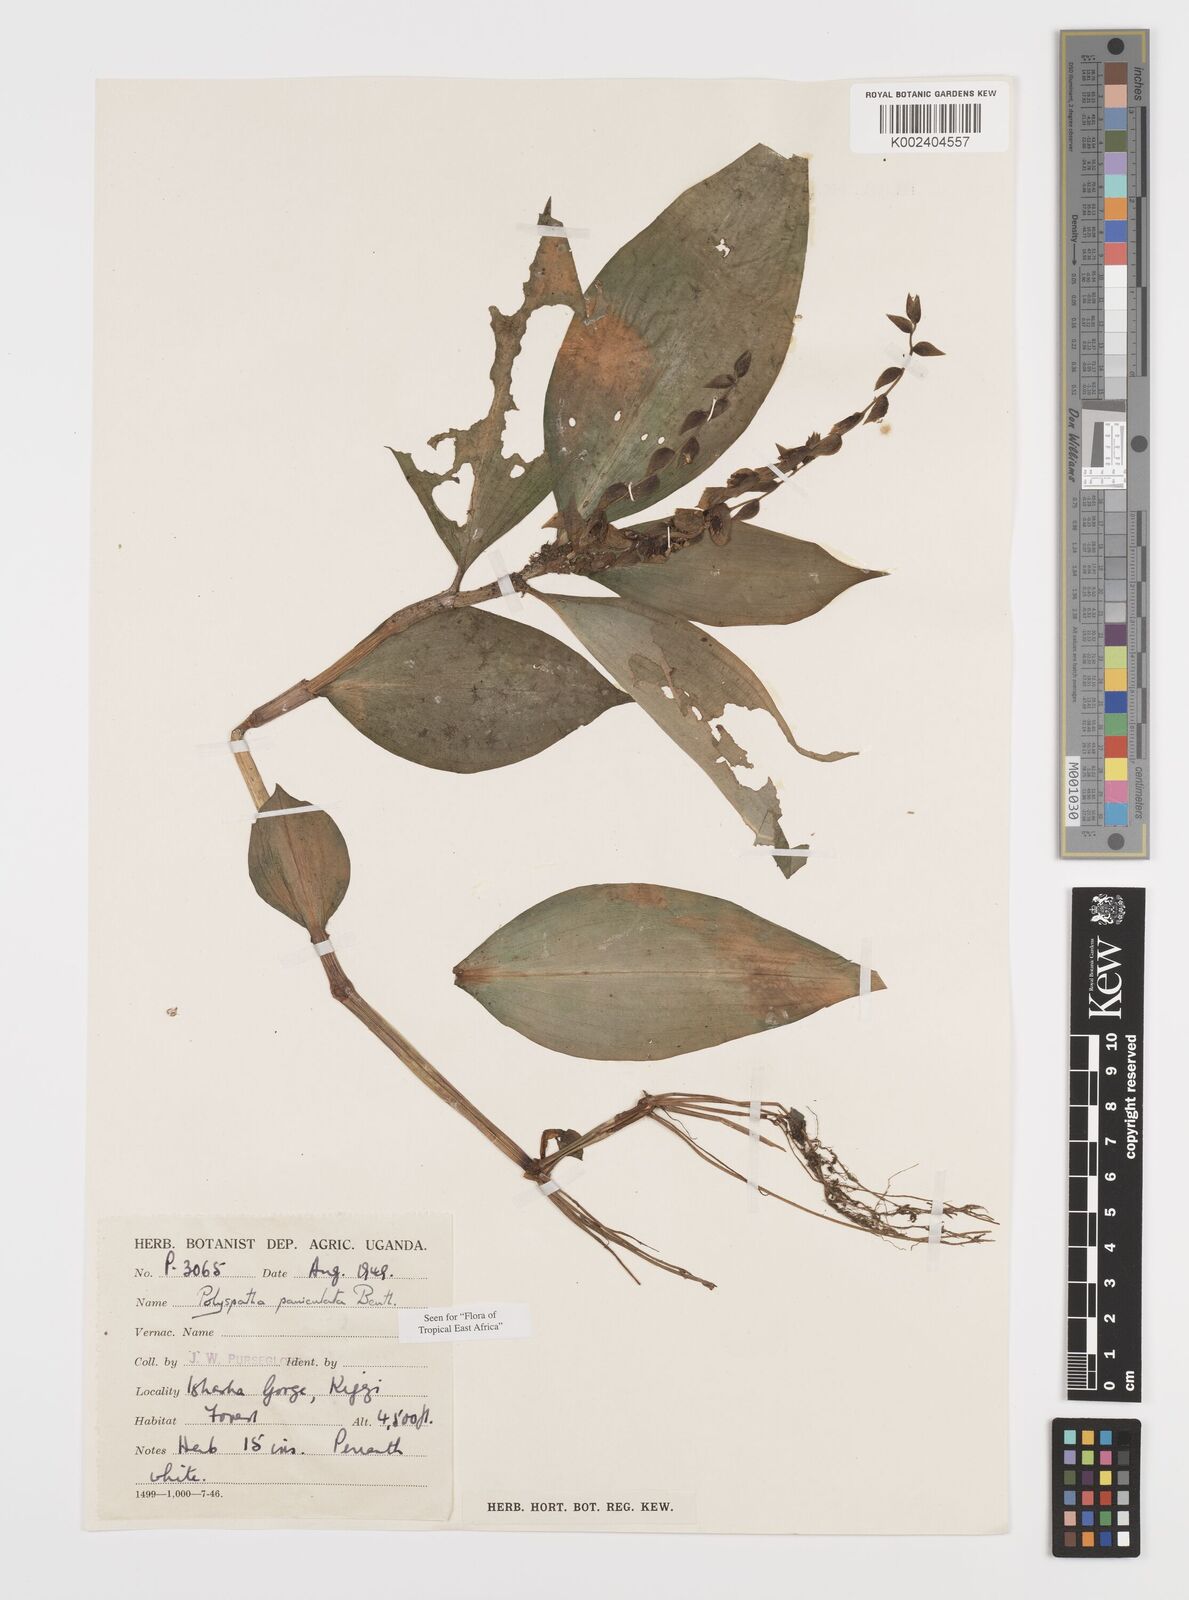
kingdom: Plantae
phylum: Tracheophyta
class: Liliopsida
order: Commelinales
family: Commelinaceae
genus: Polyspatha
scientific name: Polyspatha paniculata
